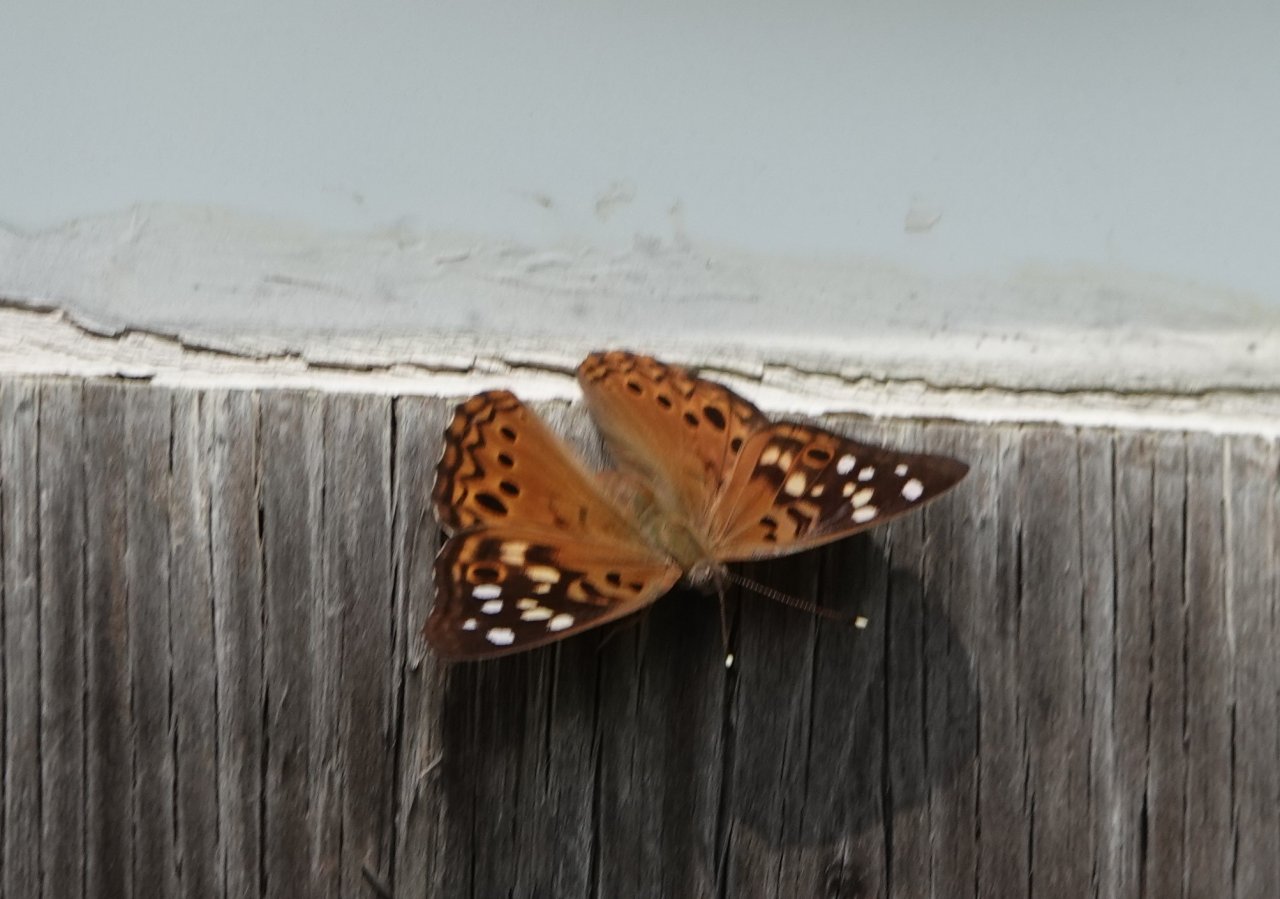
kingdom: Animalia
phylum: Arthropoda
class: Insecta
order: Lepidoptera
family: Nymphalidae
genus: Asterocampa
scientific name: Asterocampa celtis
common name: Hackberry Emperor
